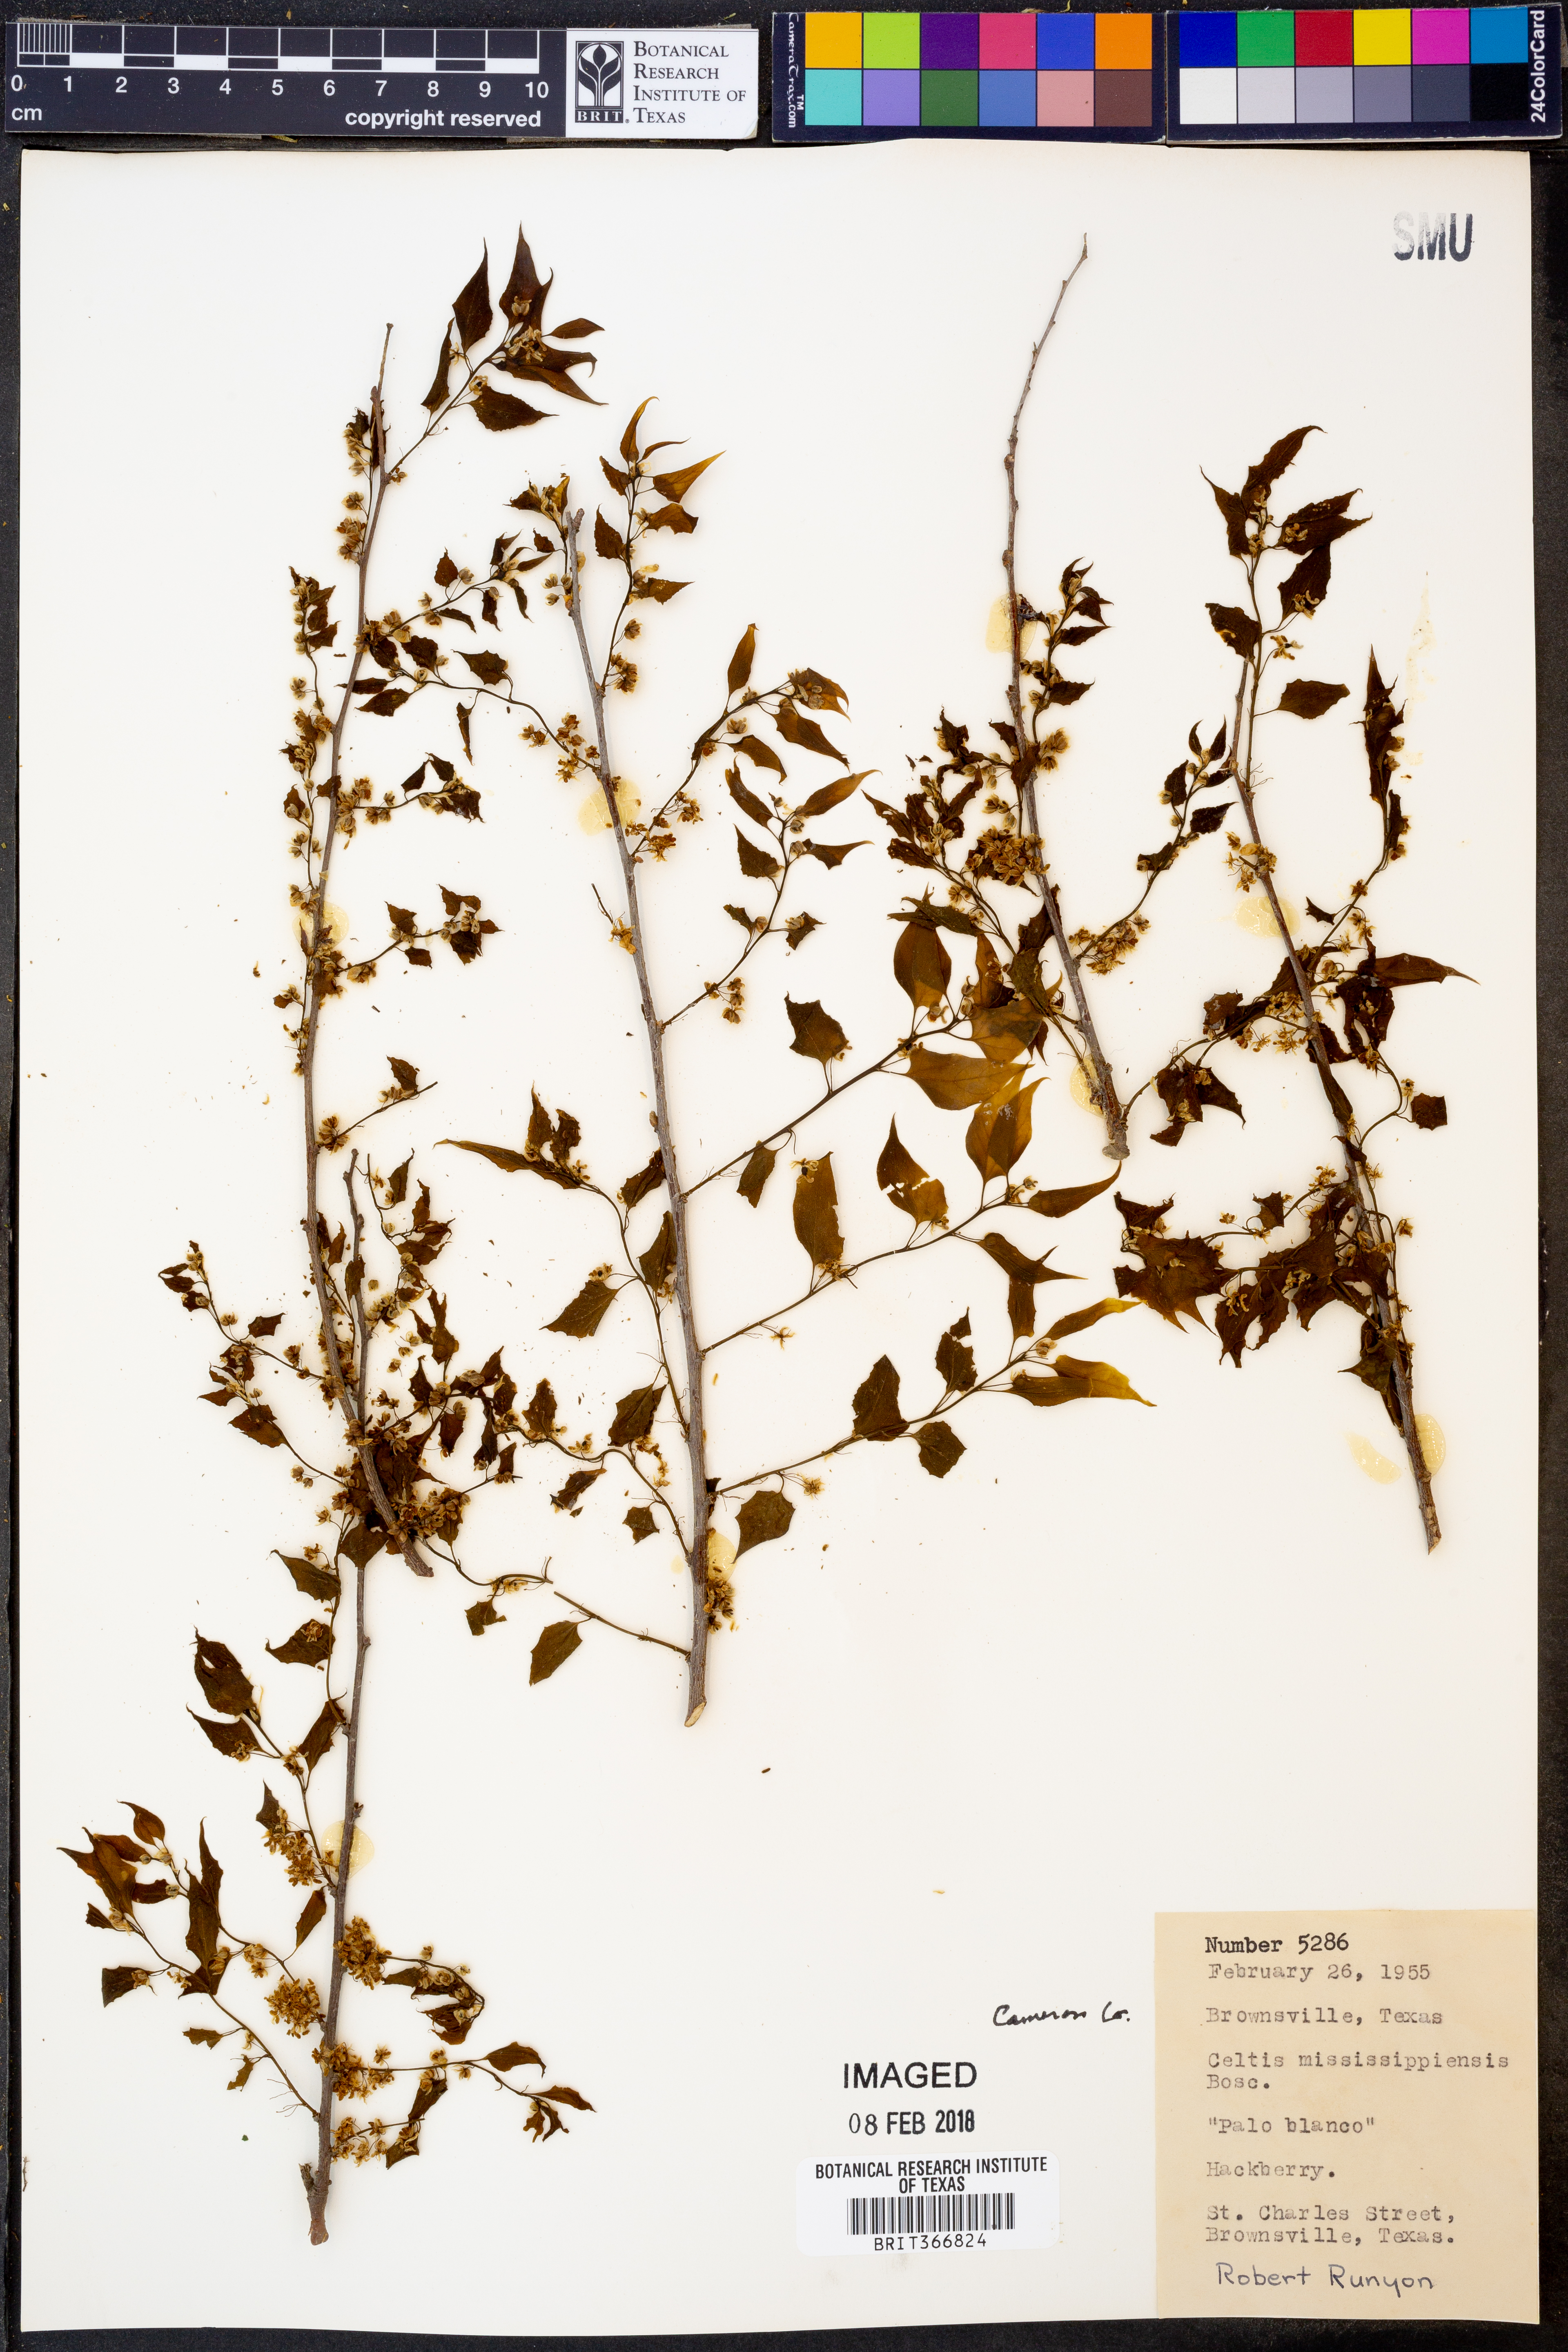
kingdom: Plantae
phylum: Tracheophyta
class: Magnoliopsida
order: Rosales
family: Cannabaceae
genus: Celtis
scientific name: Celtis
